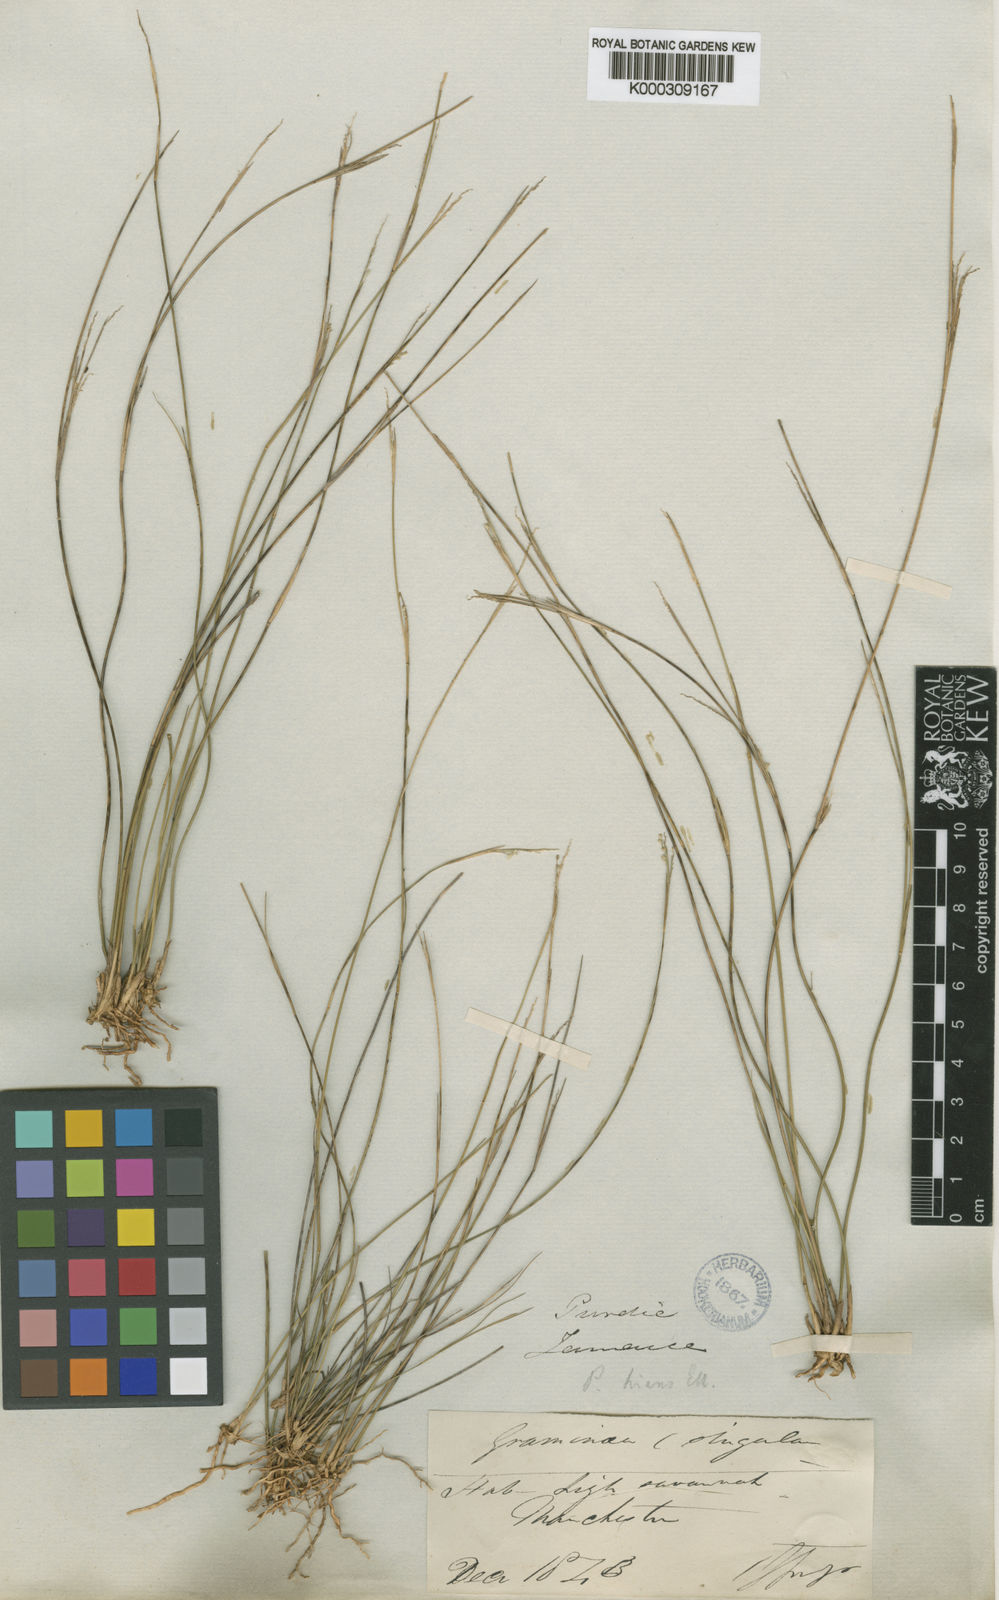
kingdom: Plantae
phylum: Tracheophyta
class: Liliopsida
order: Poales
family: Poaceae
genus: Coleataenia
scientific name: Coleataenia stenodes
